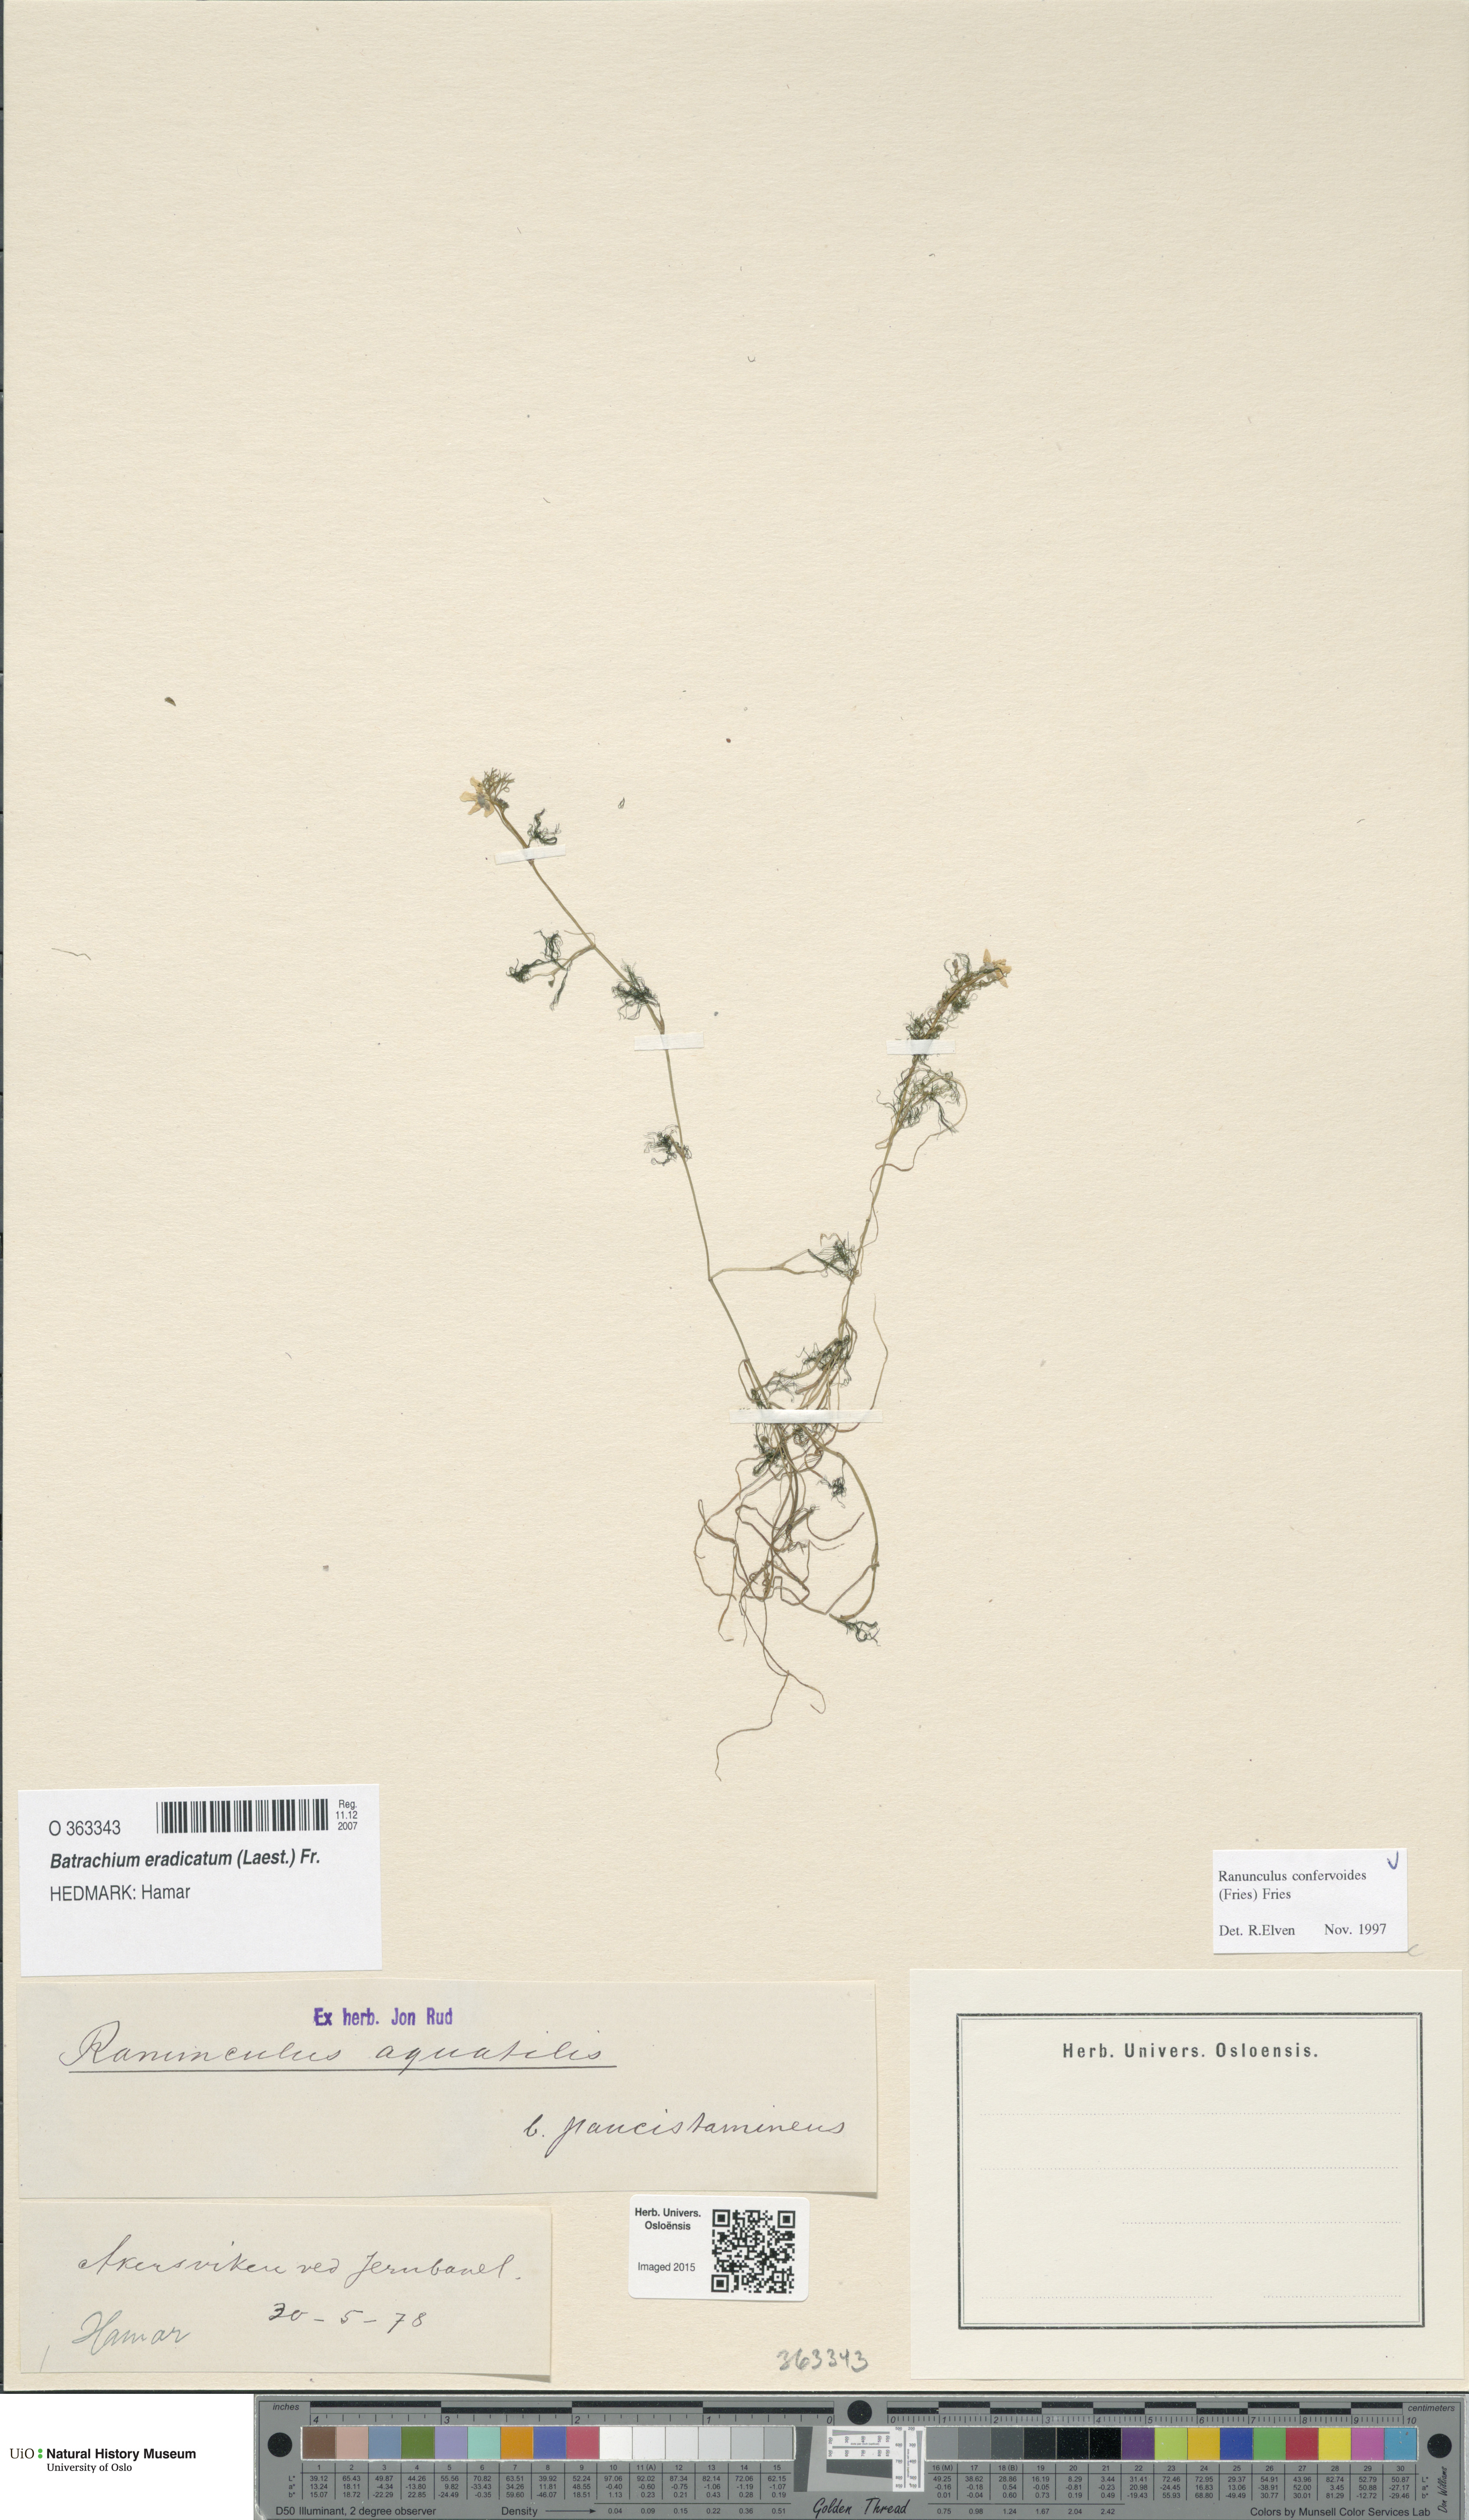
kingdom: Plantae
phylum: Tracheophyta
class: Magnoliopsida
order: Ranunculales
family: Ranunculaceae
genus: Ranunculus
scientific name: Ranunculus confervoides
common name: Delicate buttercup
